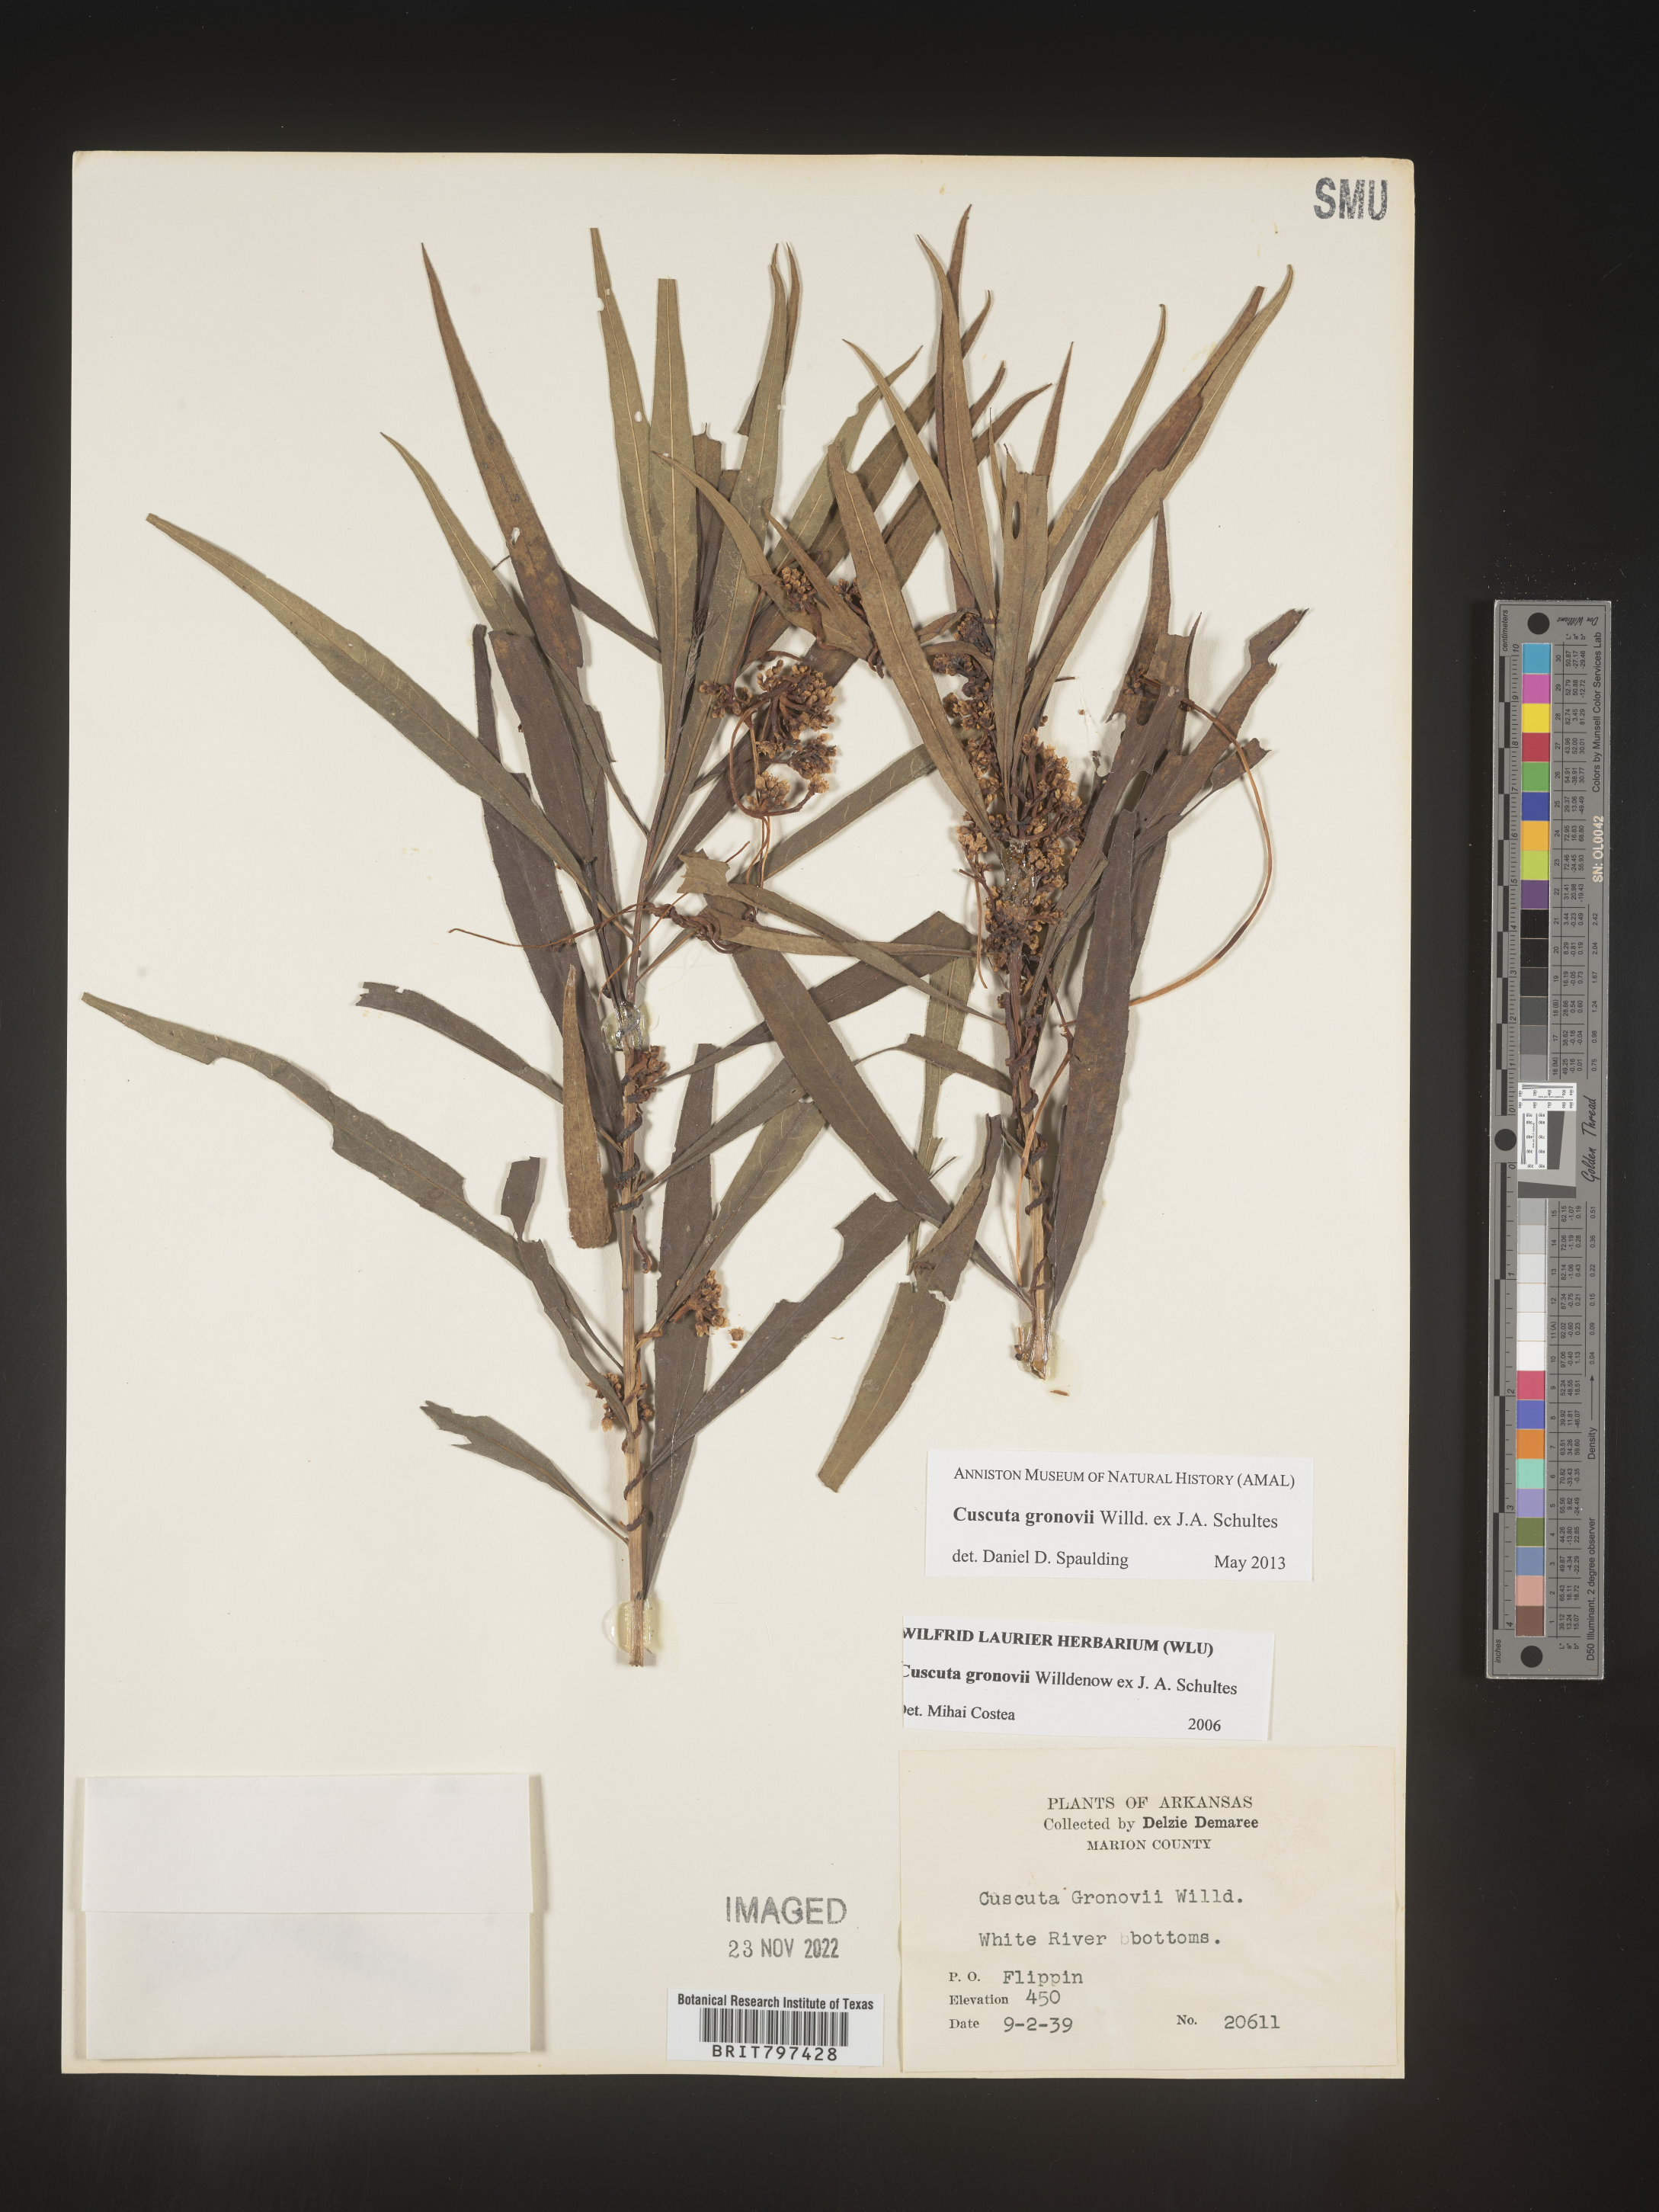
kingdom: Plantae
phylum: Tracheophyta
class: Magnoliopsida
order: Solanales
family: Convolvulaceae
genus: Cuscuta
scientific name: Cuscuta gronovii
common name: Common dodder
